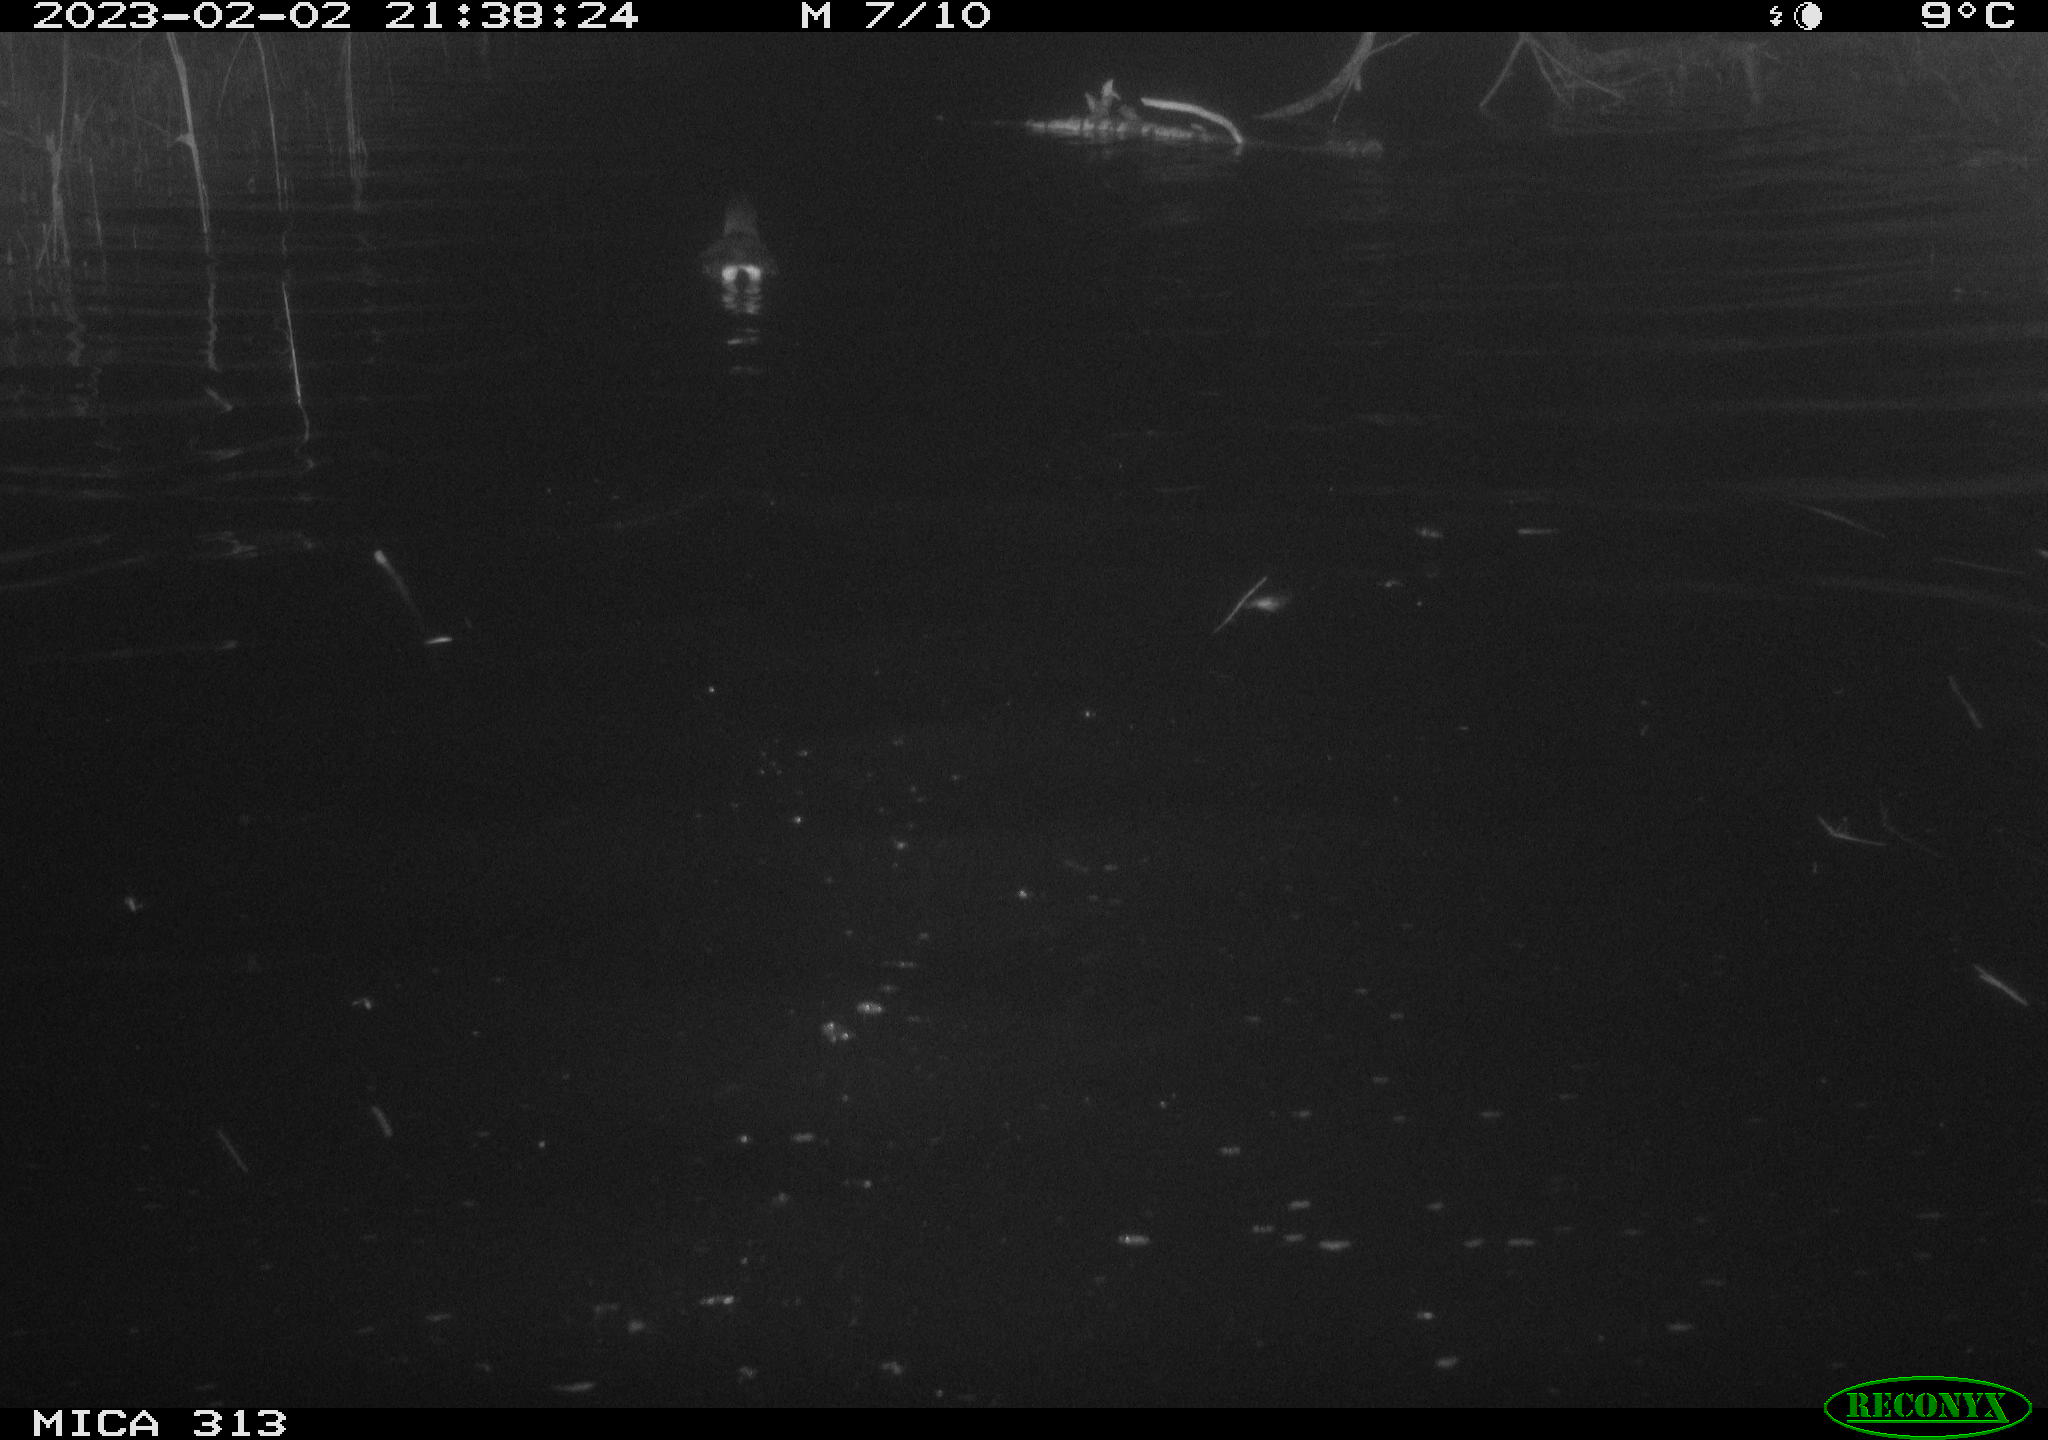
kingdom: Animalia
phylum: Chordata
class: Aves
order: Gruiformes
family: Rallidae
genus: Gallinula
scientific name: Gallinula chloropus
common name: Common moorhen
